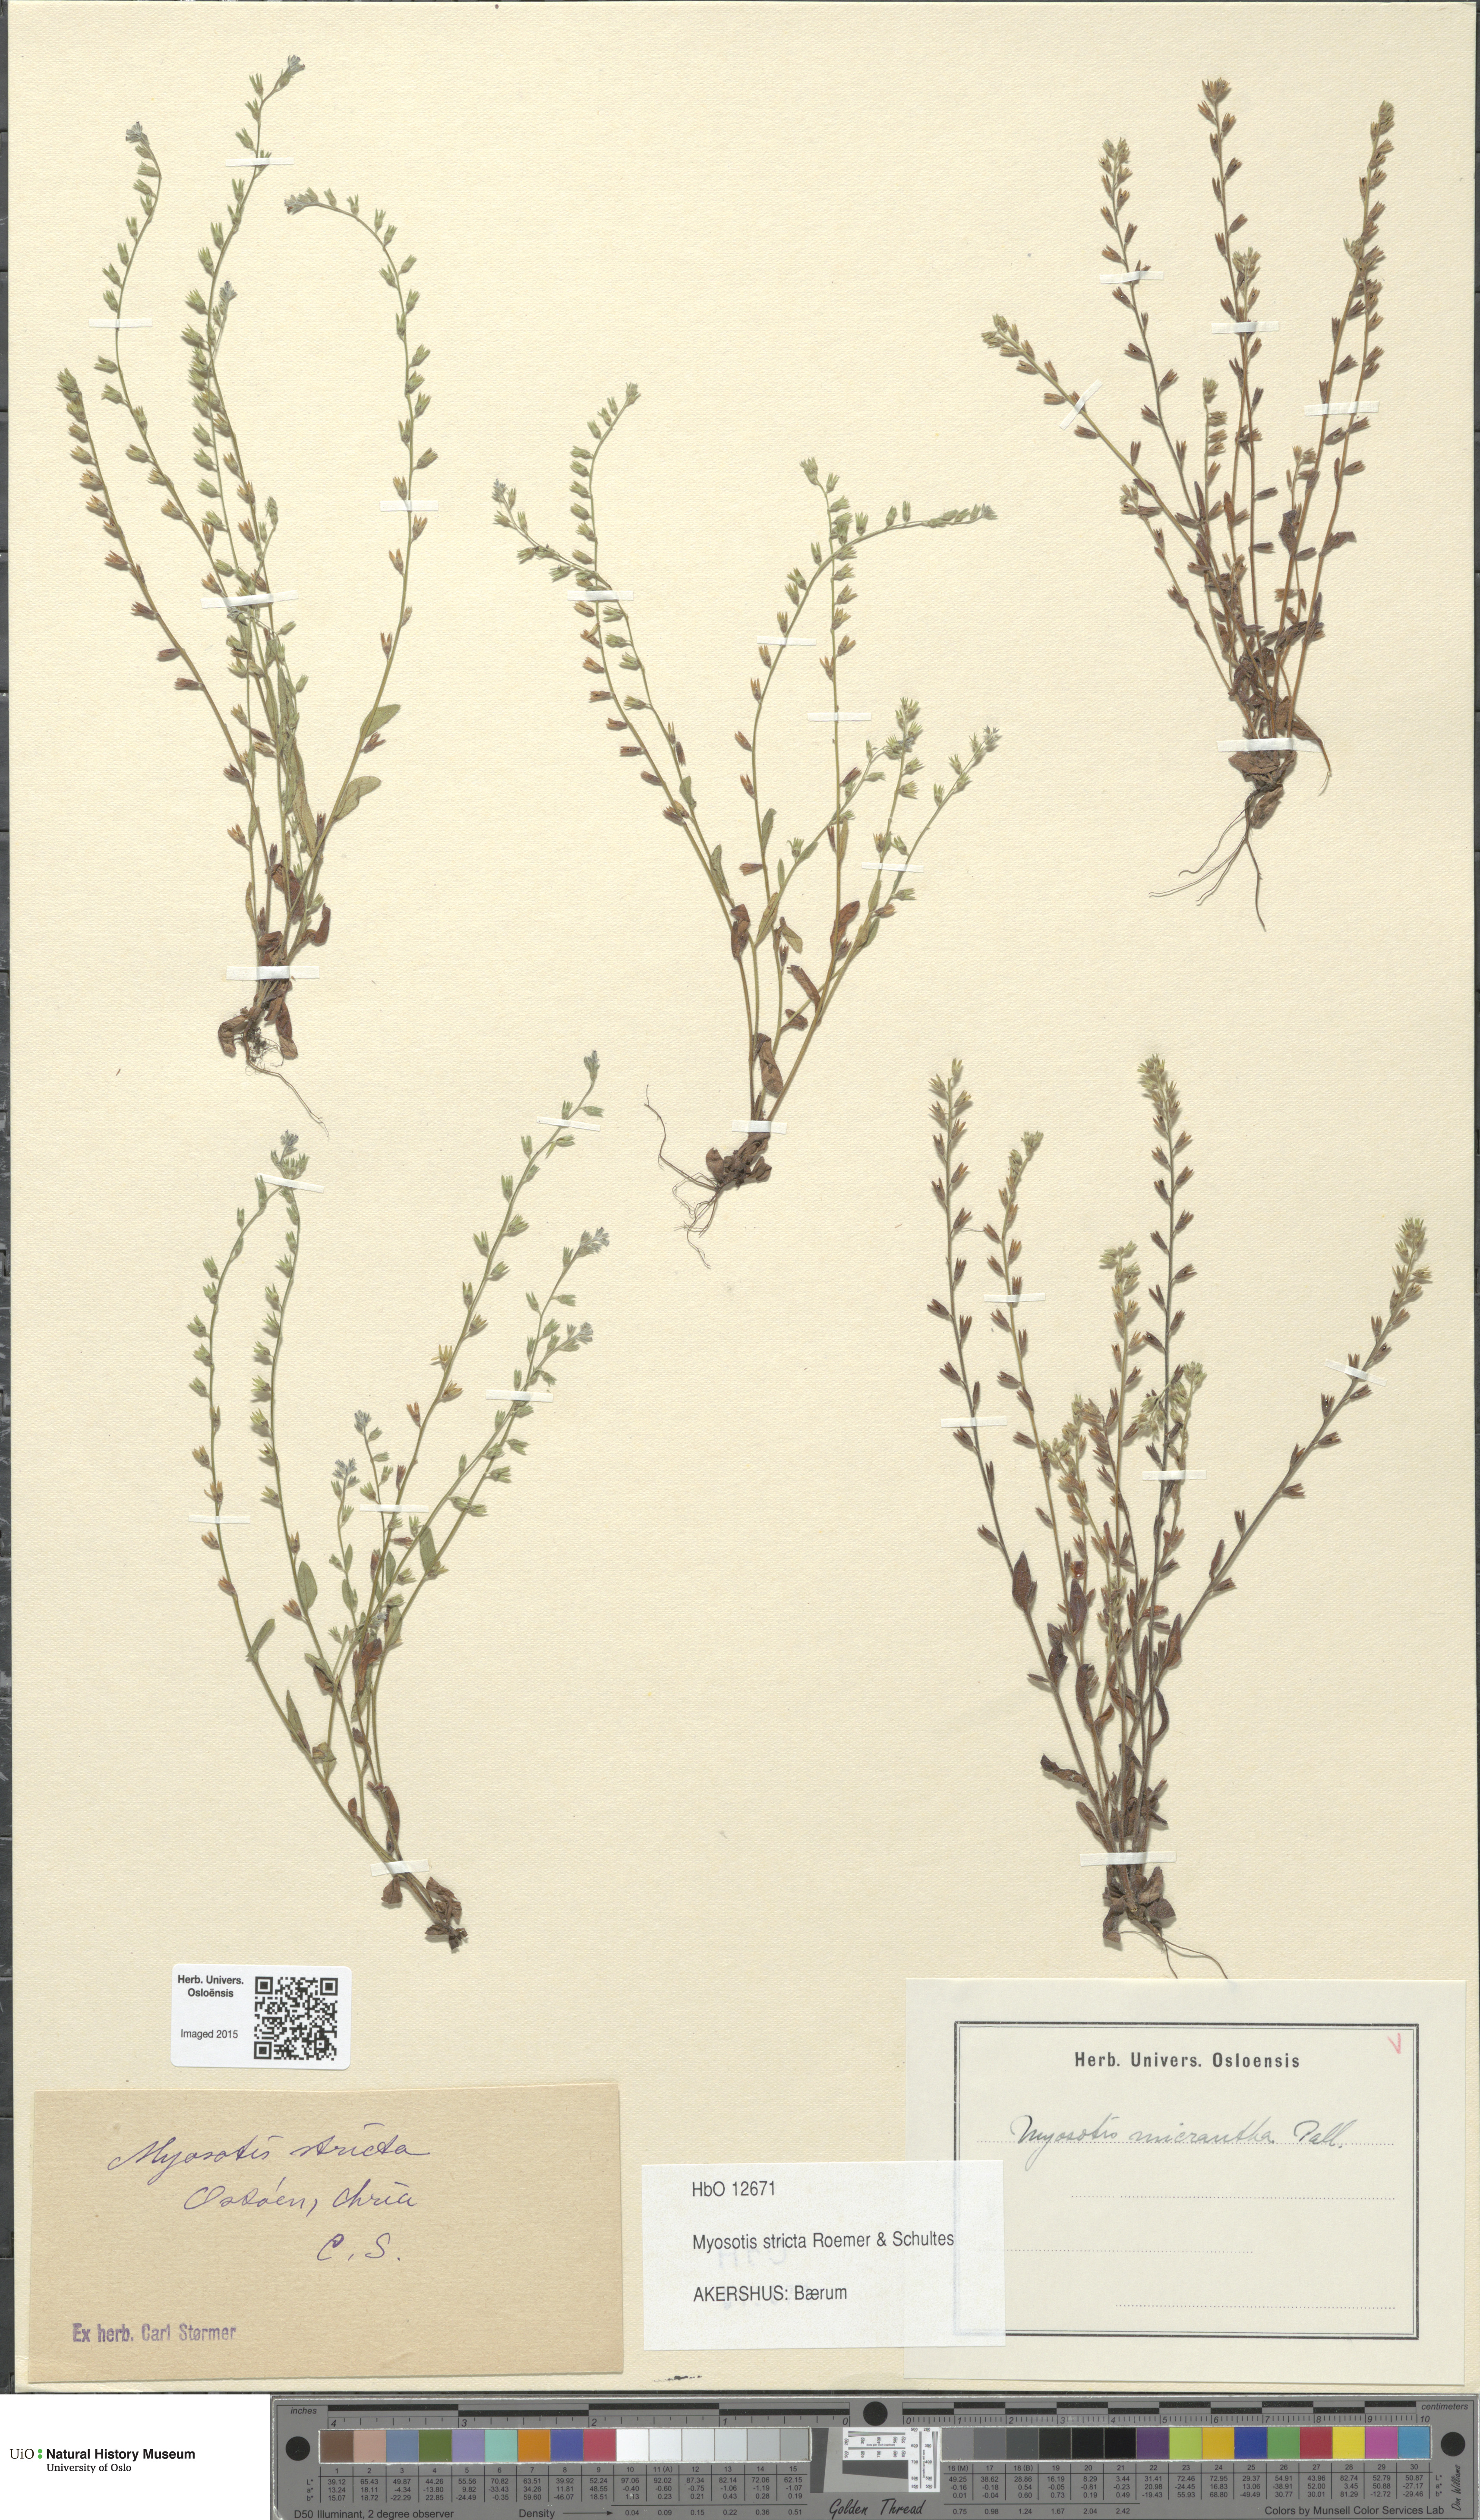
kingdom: Plantae
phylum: Tracheophyta
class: Magnoliopsida
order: Boraginales
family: Boraginaceae
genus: Myosotis
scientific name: Myosotis stricta
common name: Strict forget-me-not
